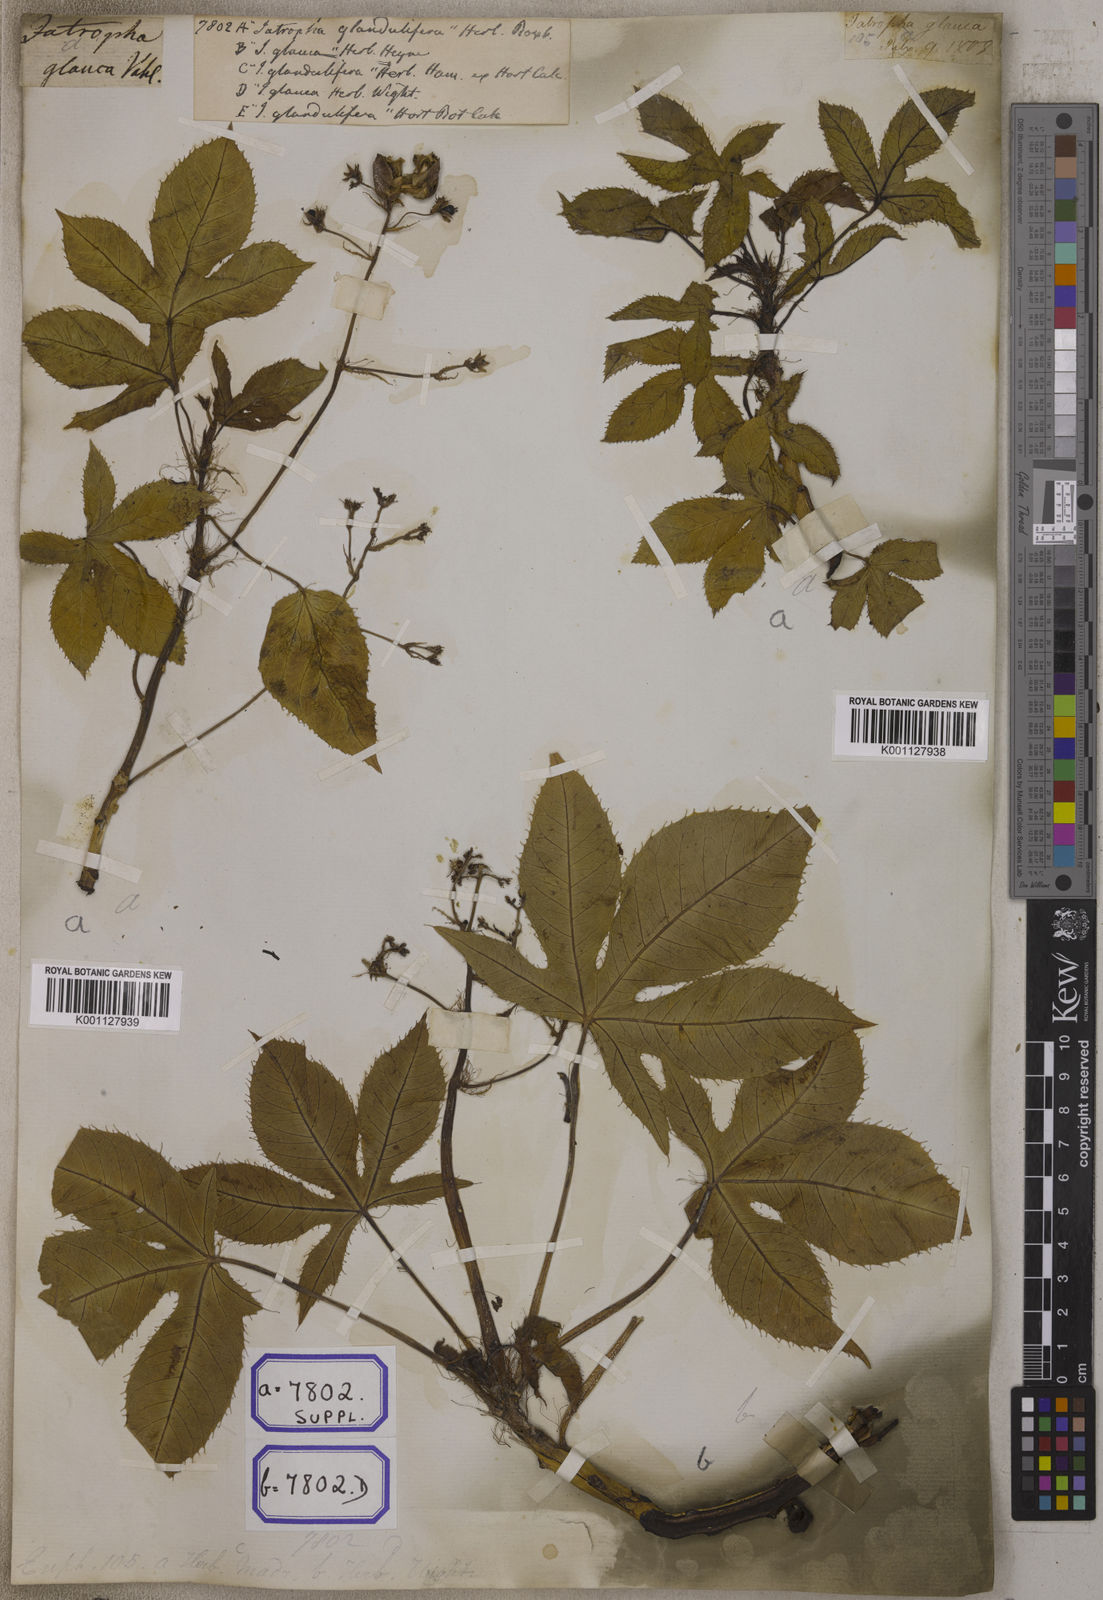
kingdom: Plantae
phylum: Tracheophyta
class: Magnoliopsida
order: Malpighiales
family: Euphorbiaceae
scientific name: Euphorbiaceae
